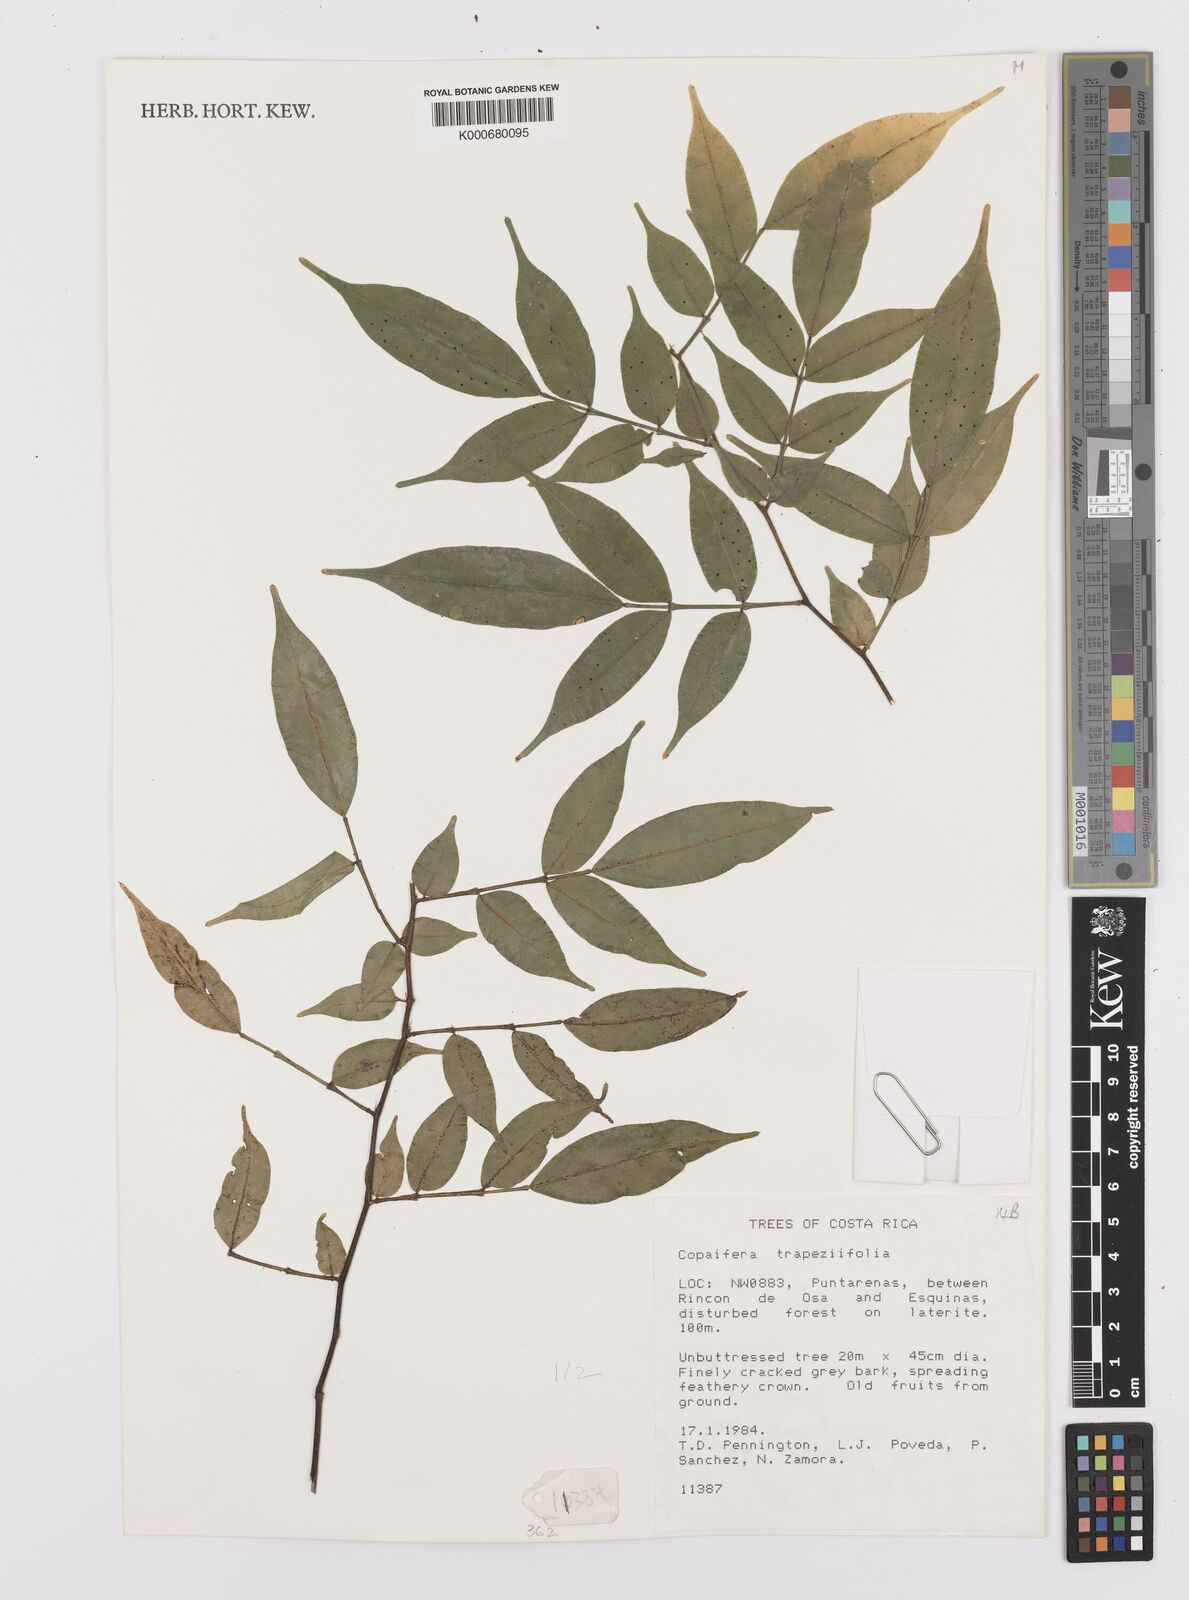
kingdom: Plantae
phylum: Tracheophyta
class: Magnoliopsida
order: Fabales
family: Fabaceae
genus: Copaifera
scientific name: Copaifera trapezifolia
